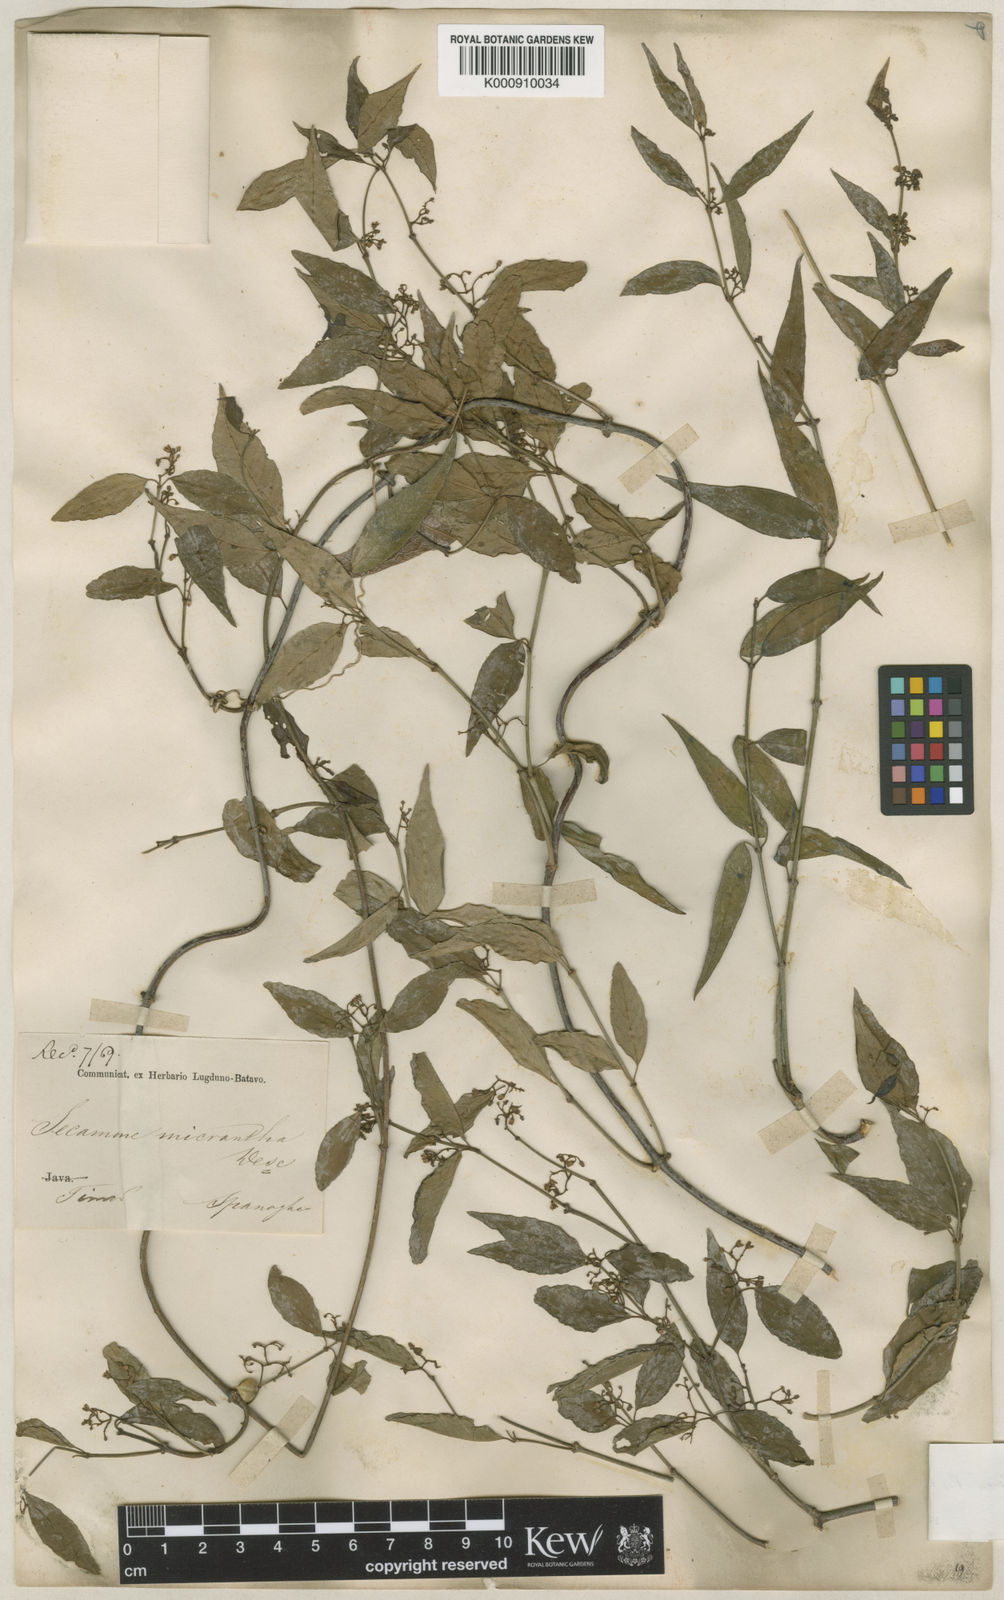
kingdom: Plantae
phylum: Tracheophyta
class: Magnoliopsida
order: Gentianales
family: Apocynaceae
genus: Secamone
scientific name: Secamone elliptica
